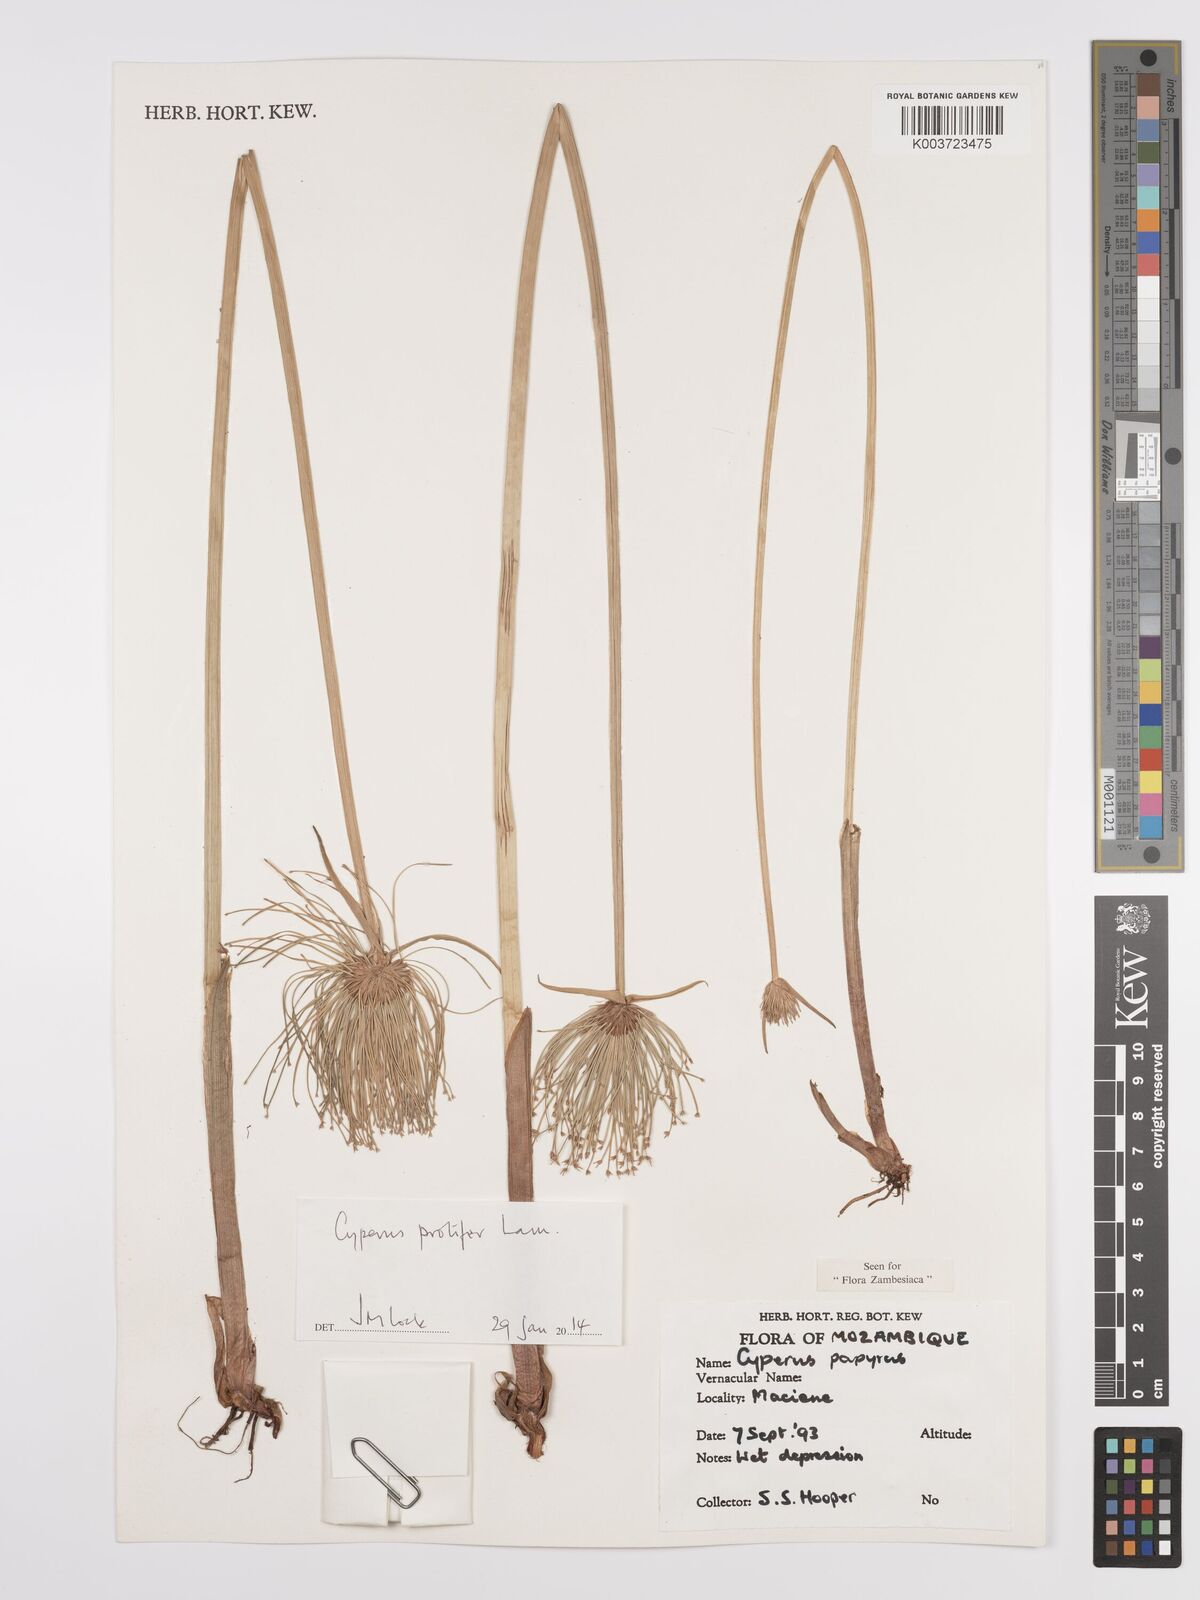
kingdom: Plantae
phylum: Tracheophyta
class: Liliopsida
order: Poales
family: Cyperaceae
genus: Cyperus
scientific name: Cyperus prolifer
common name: Miniature flatsedge
